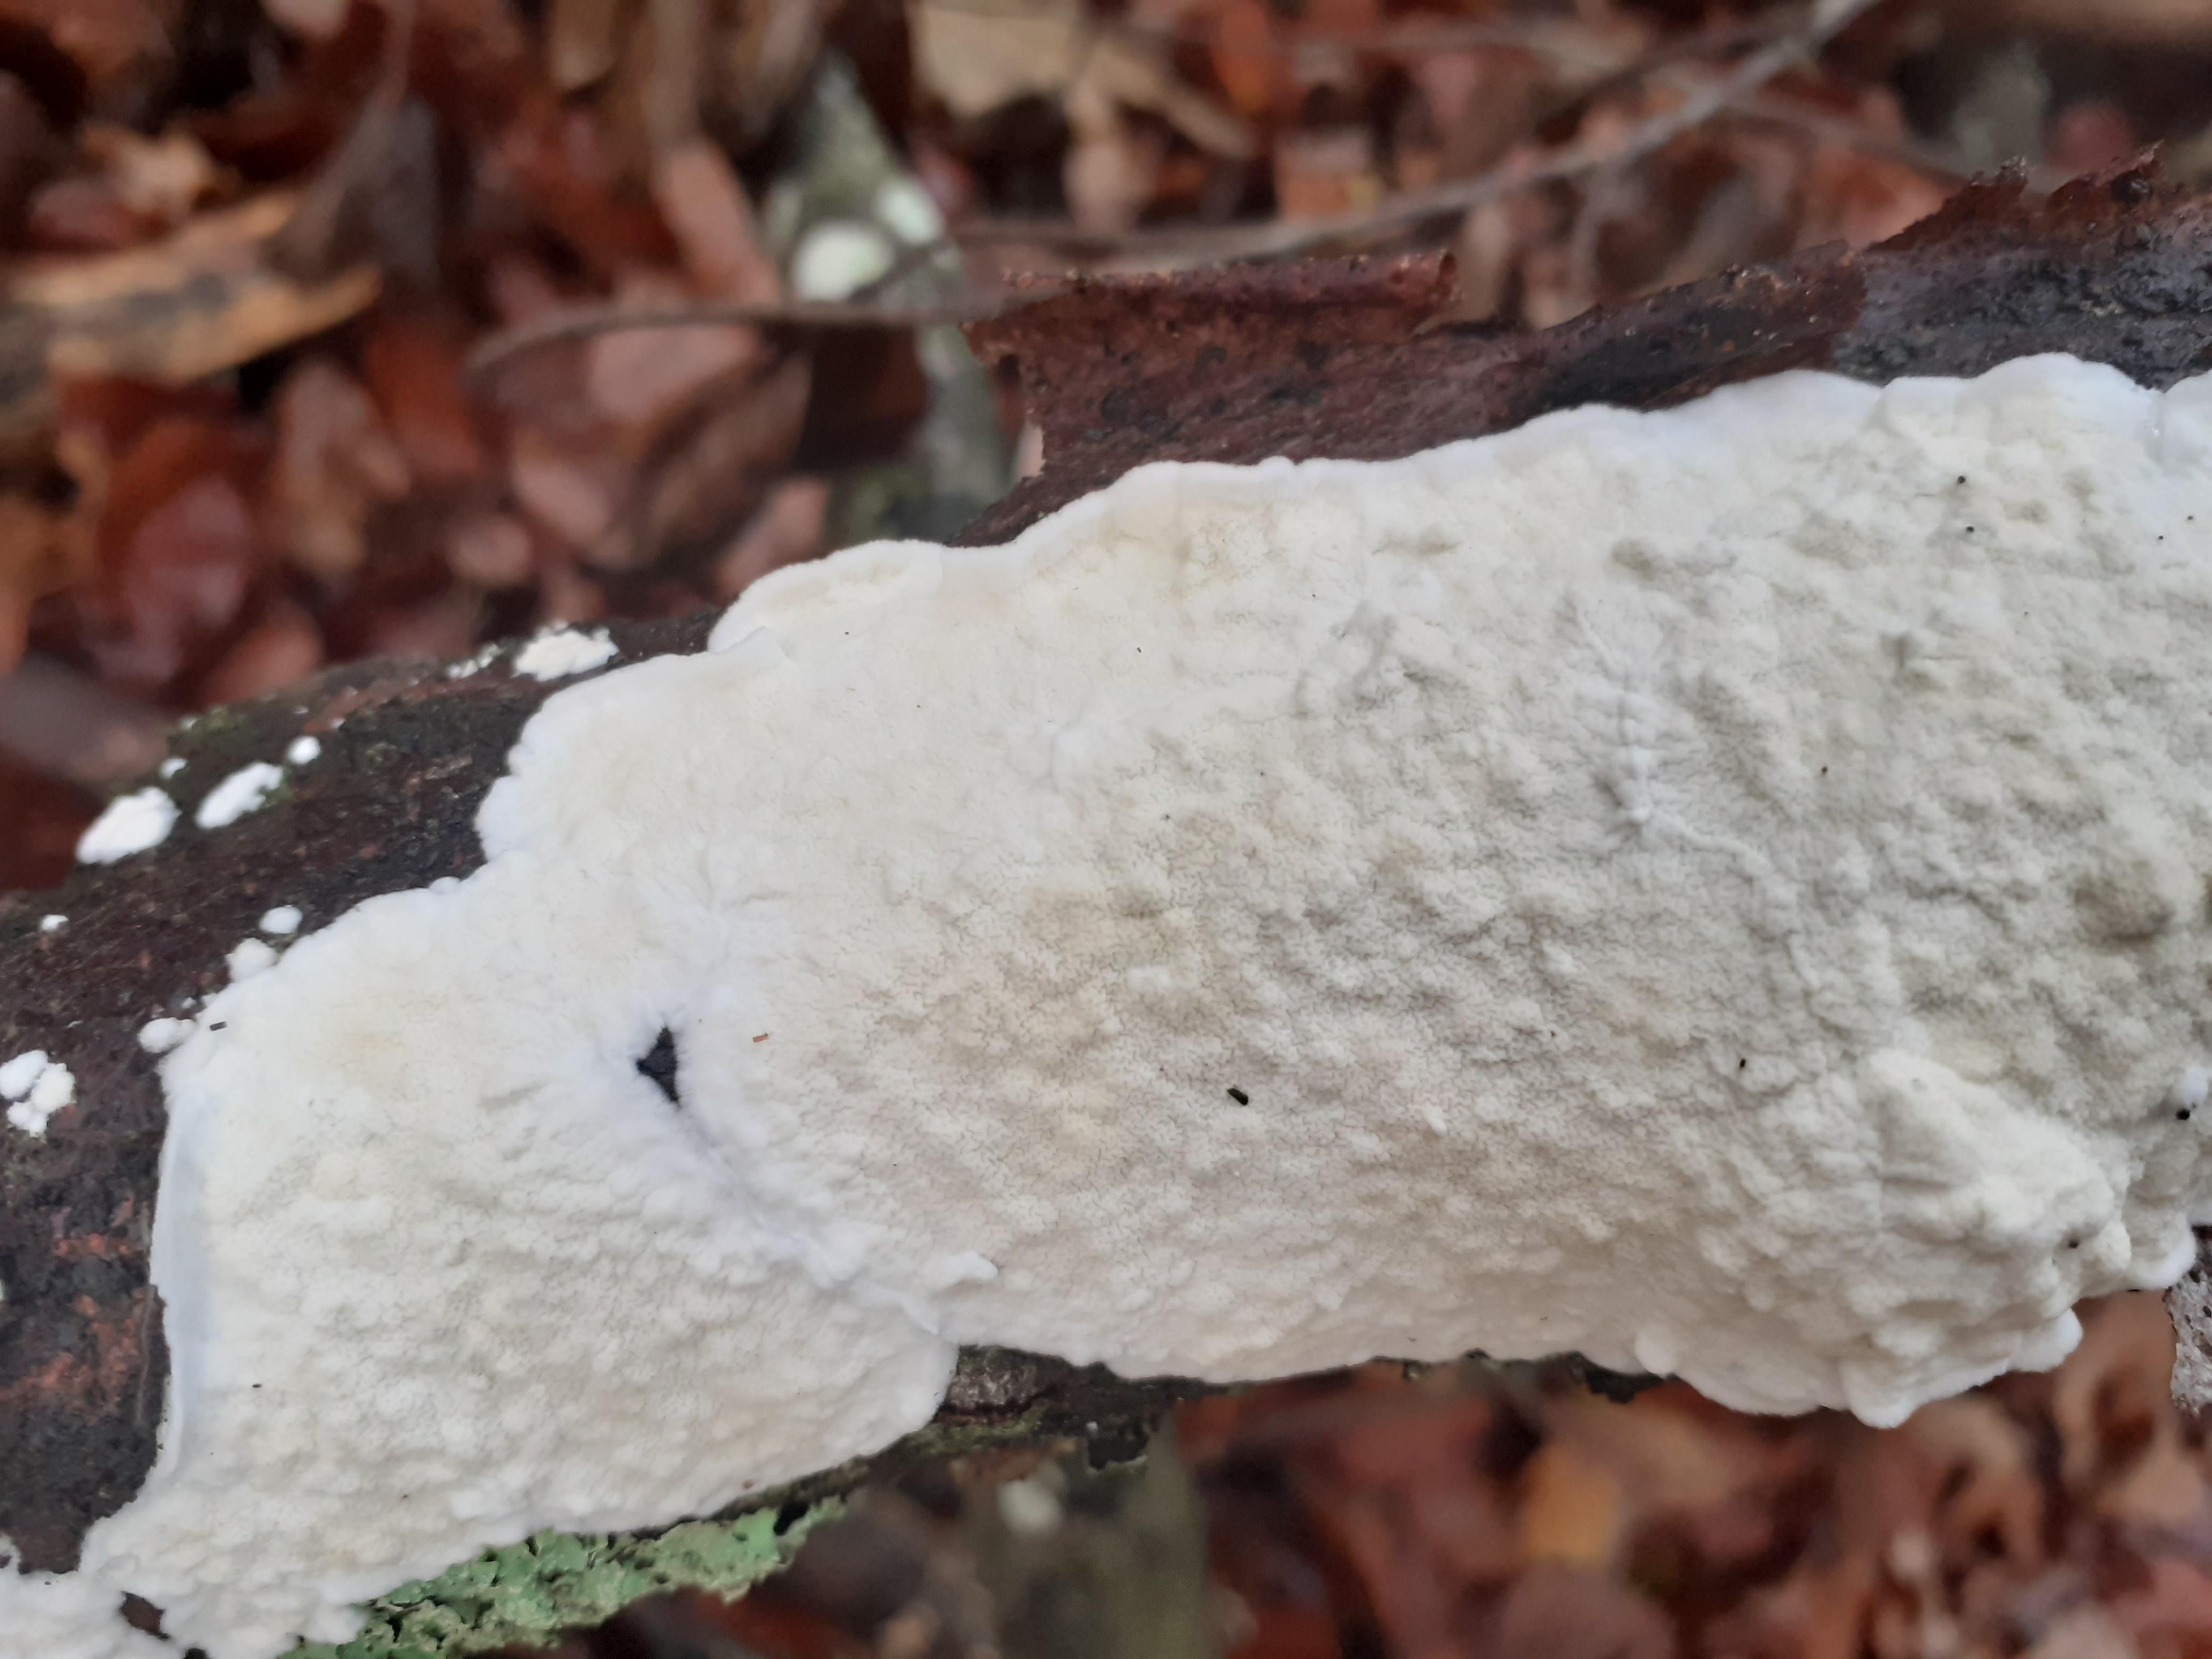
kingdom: Fungi
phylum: Basidiomycota
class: Agaricomycetes
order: Polyporales
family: Irpicaceae
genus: Byssomerulius
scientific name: Byssomerulius corium
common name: læder-åresvamp
